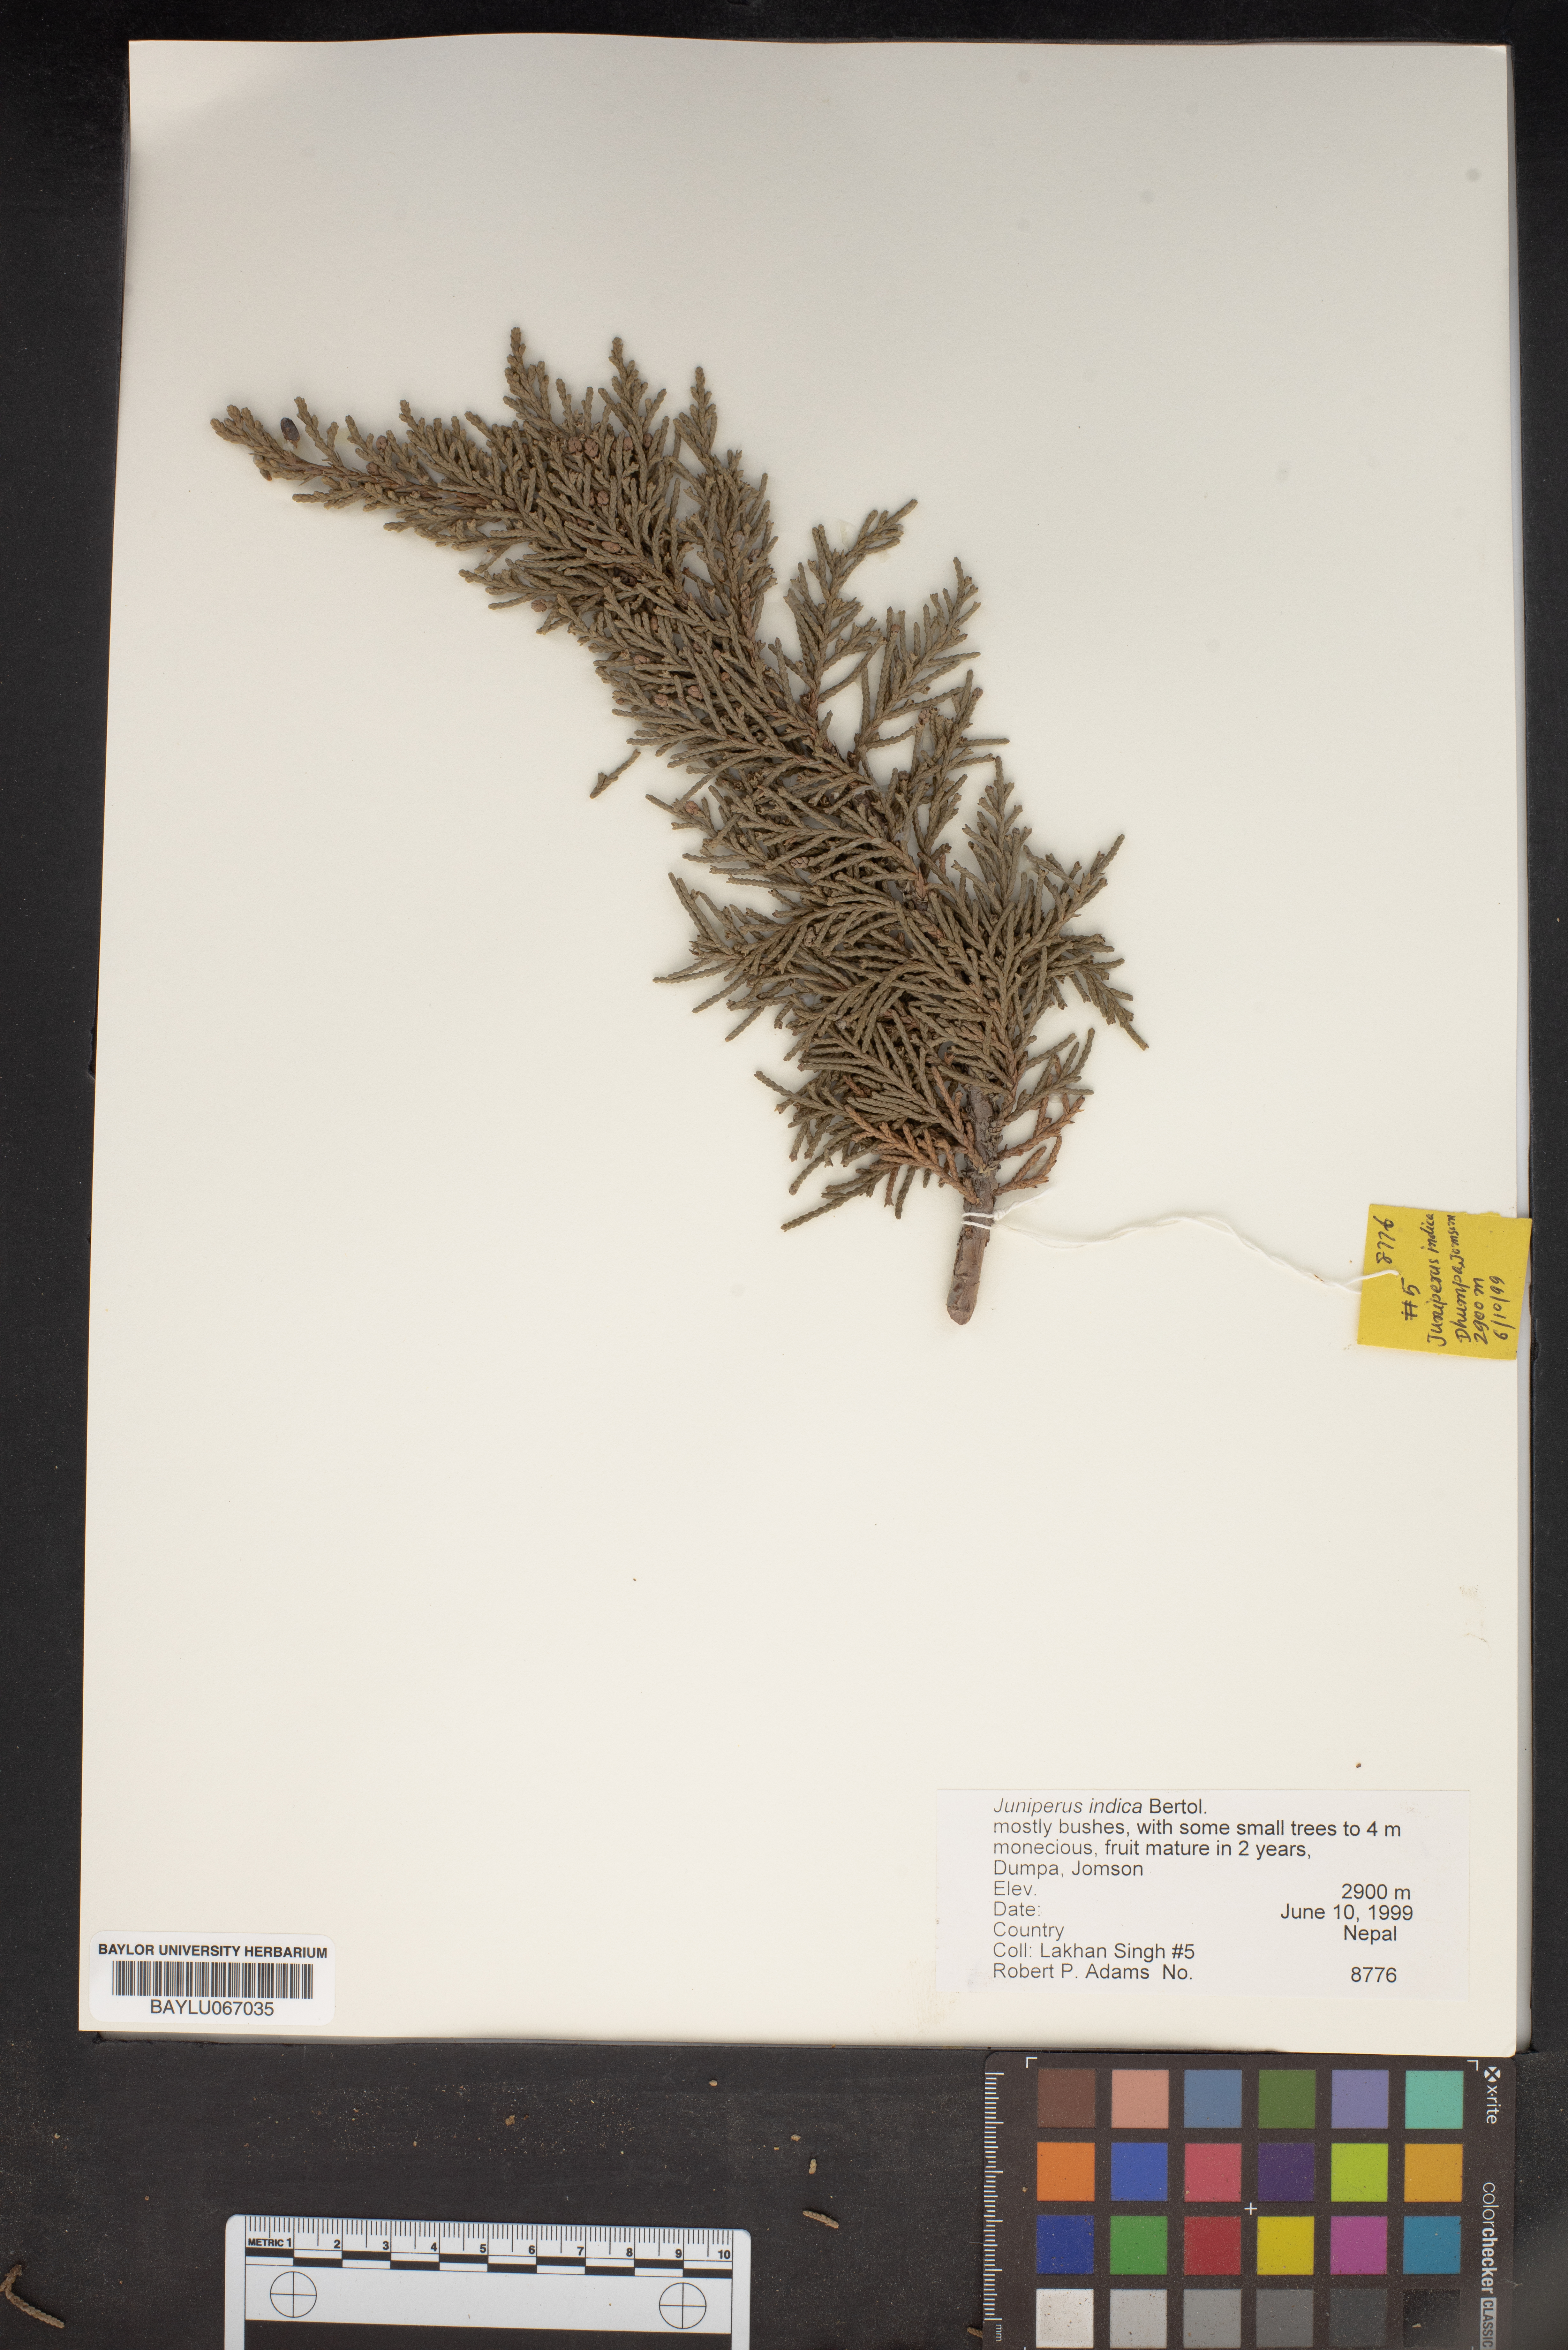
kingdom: Plantae
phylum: Tracheophyta
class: Pinopsida
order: Pinales
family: Cupressaceae
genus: Juniperus
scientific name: Juniperus indica
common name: Black juniper
